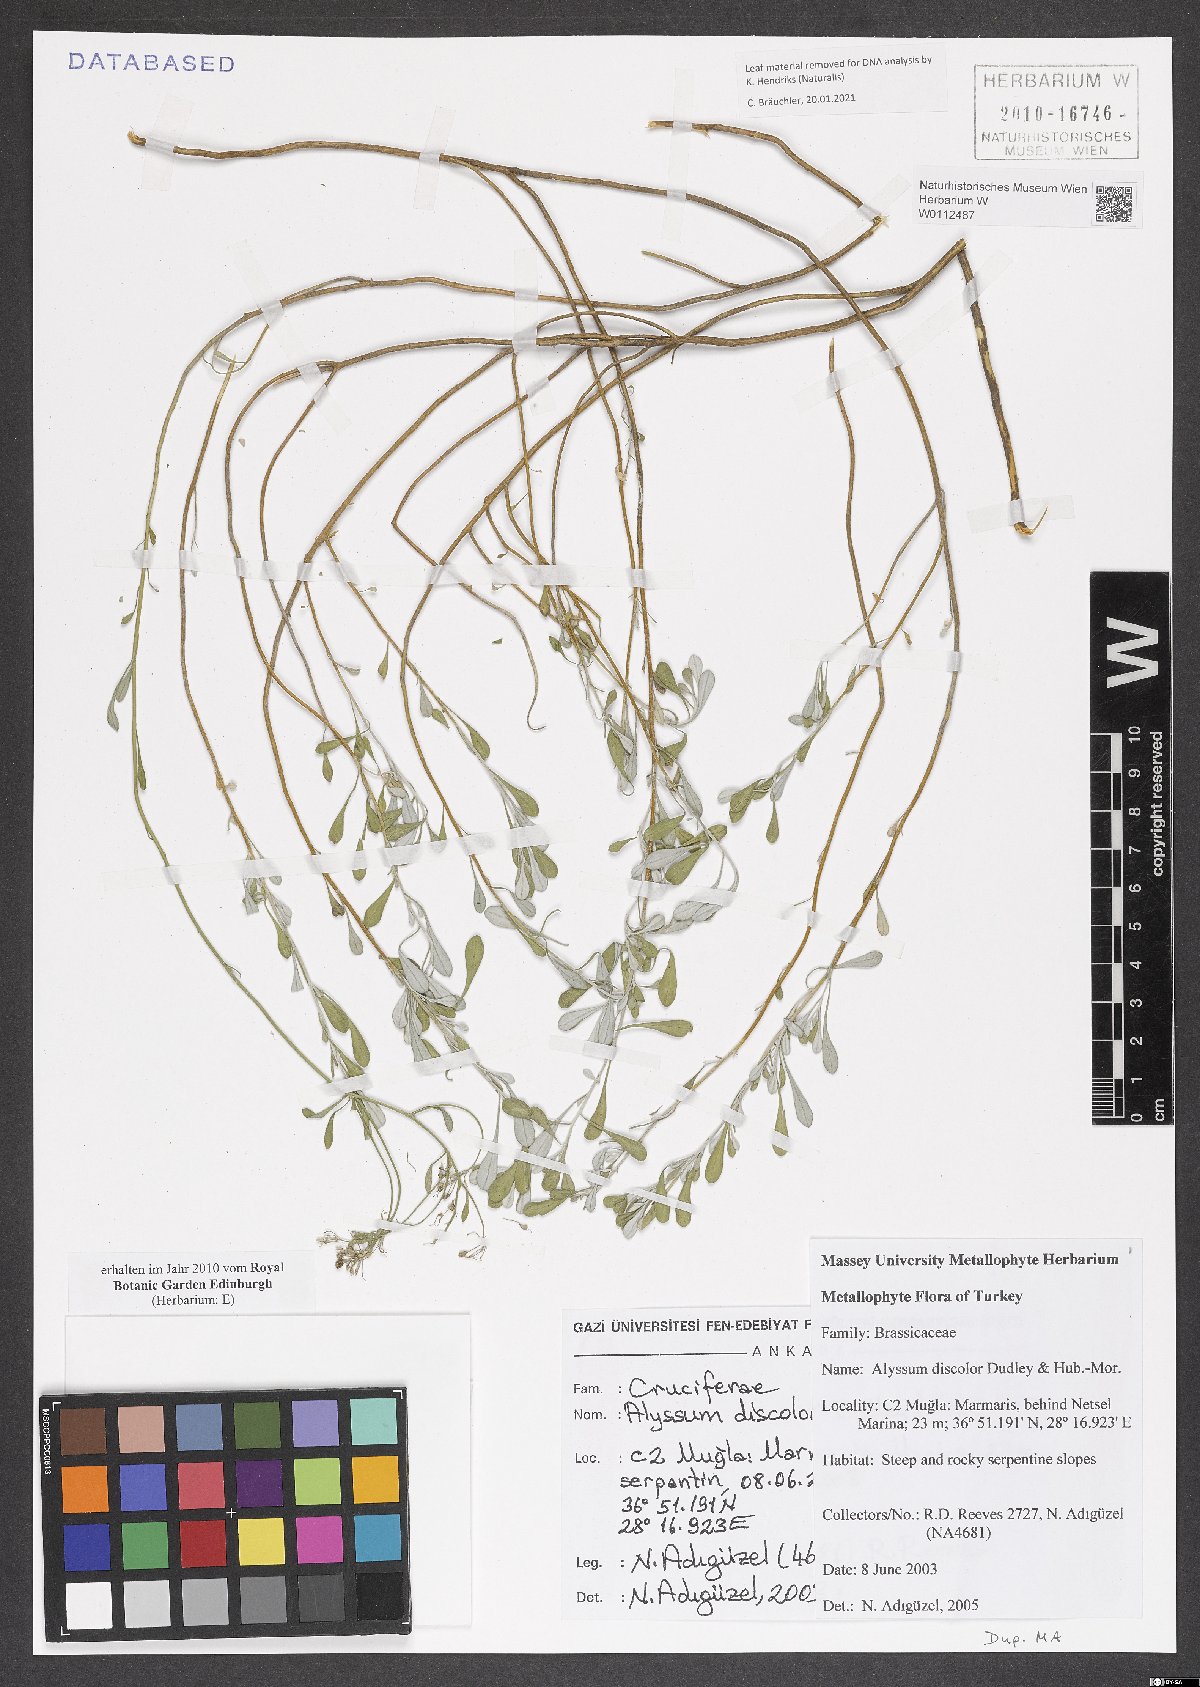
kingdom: Plantae
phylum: Tracheophyta
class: Magnoliopsida
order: Brassicales
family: Brassicaceae
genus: Odontarrhena
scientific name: Odontarrhena discolor
